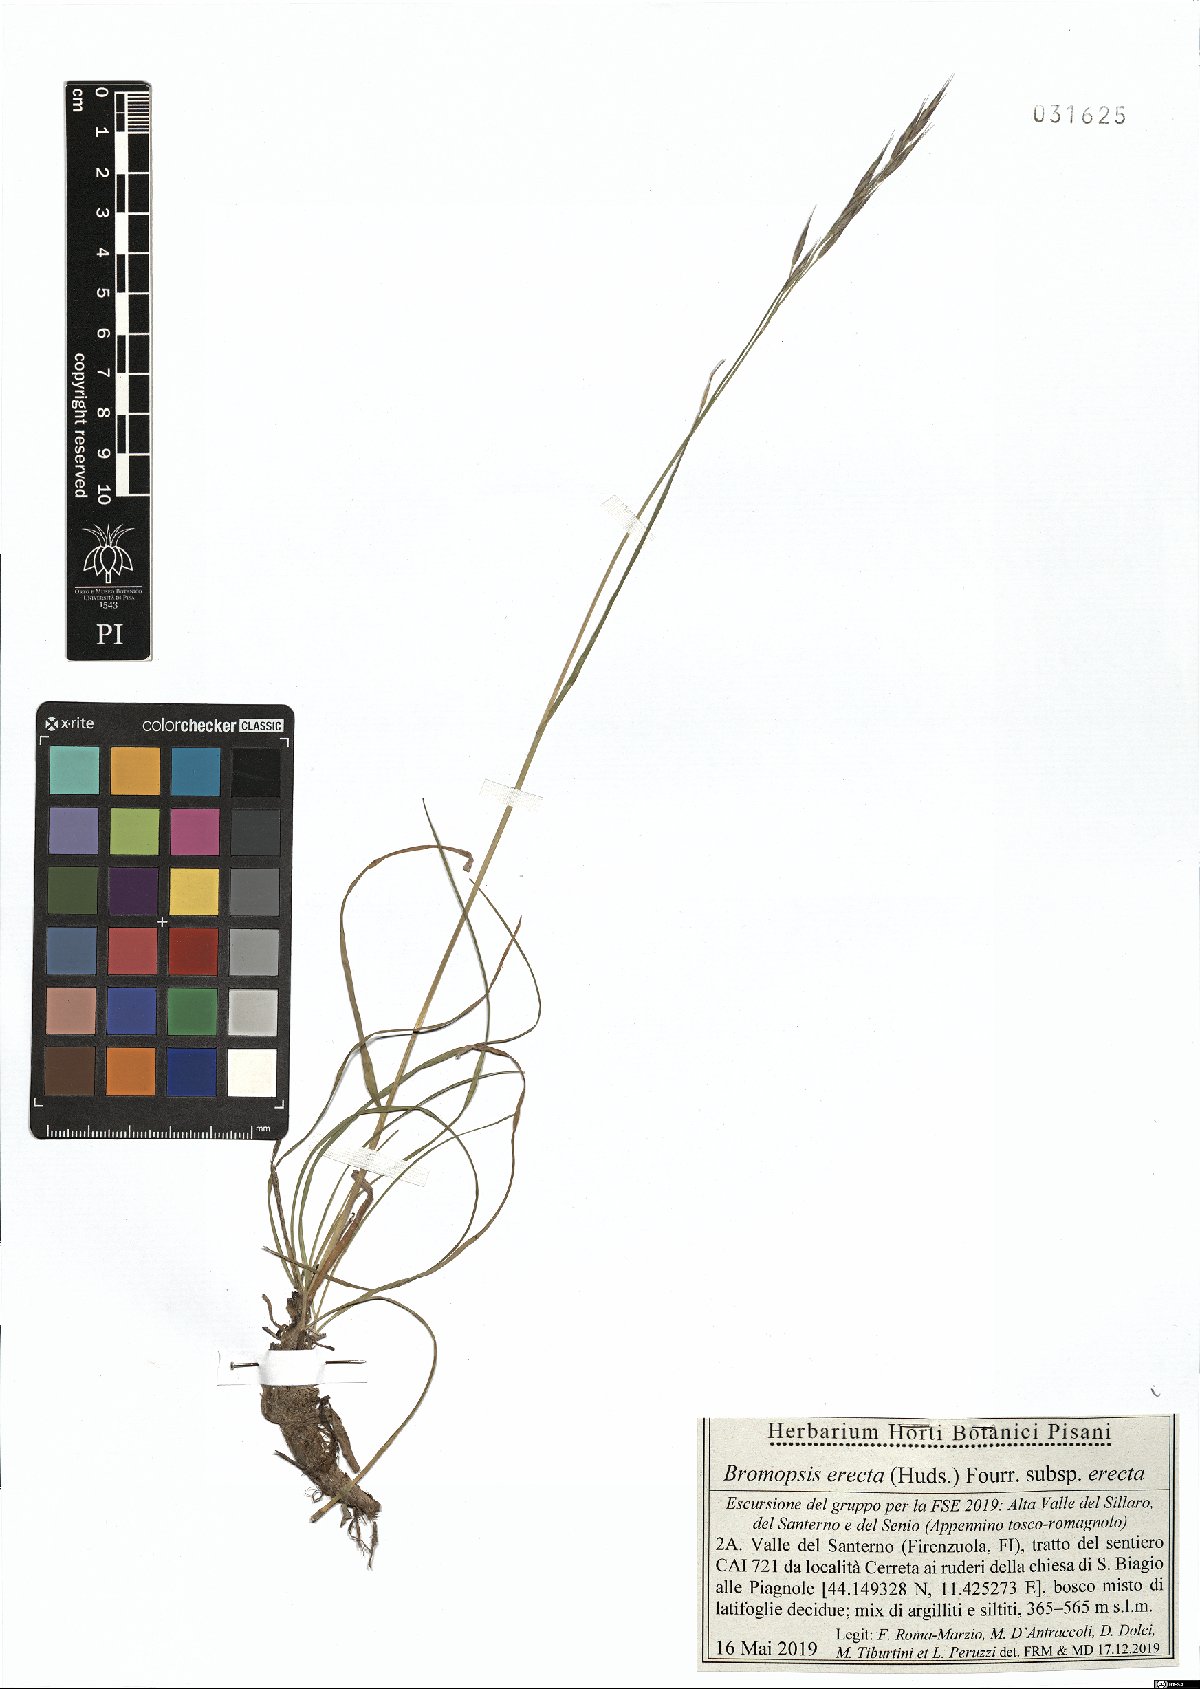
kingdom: Plantae
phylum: Tracheophyta
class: Liliopsida
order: Poales
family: Poaceae
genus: Bromus
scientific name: Bromus erectus
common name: Erect brome
